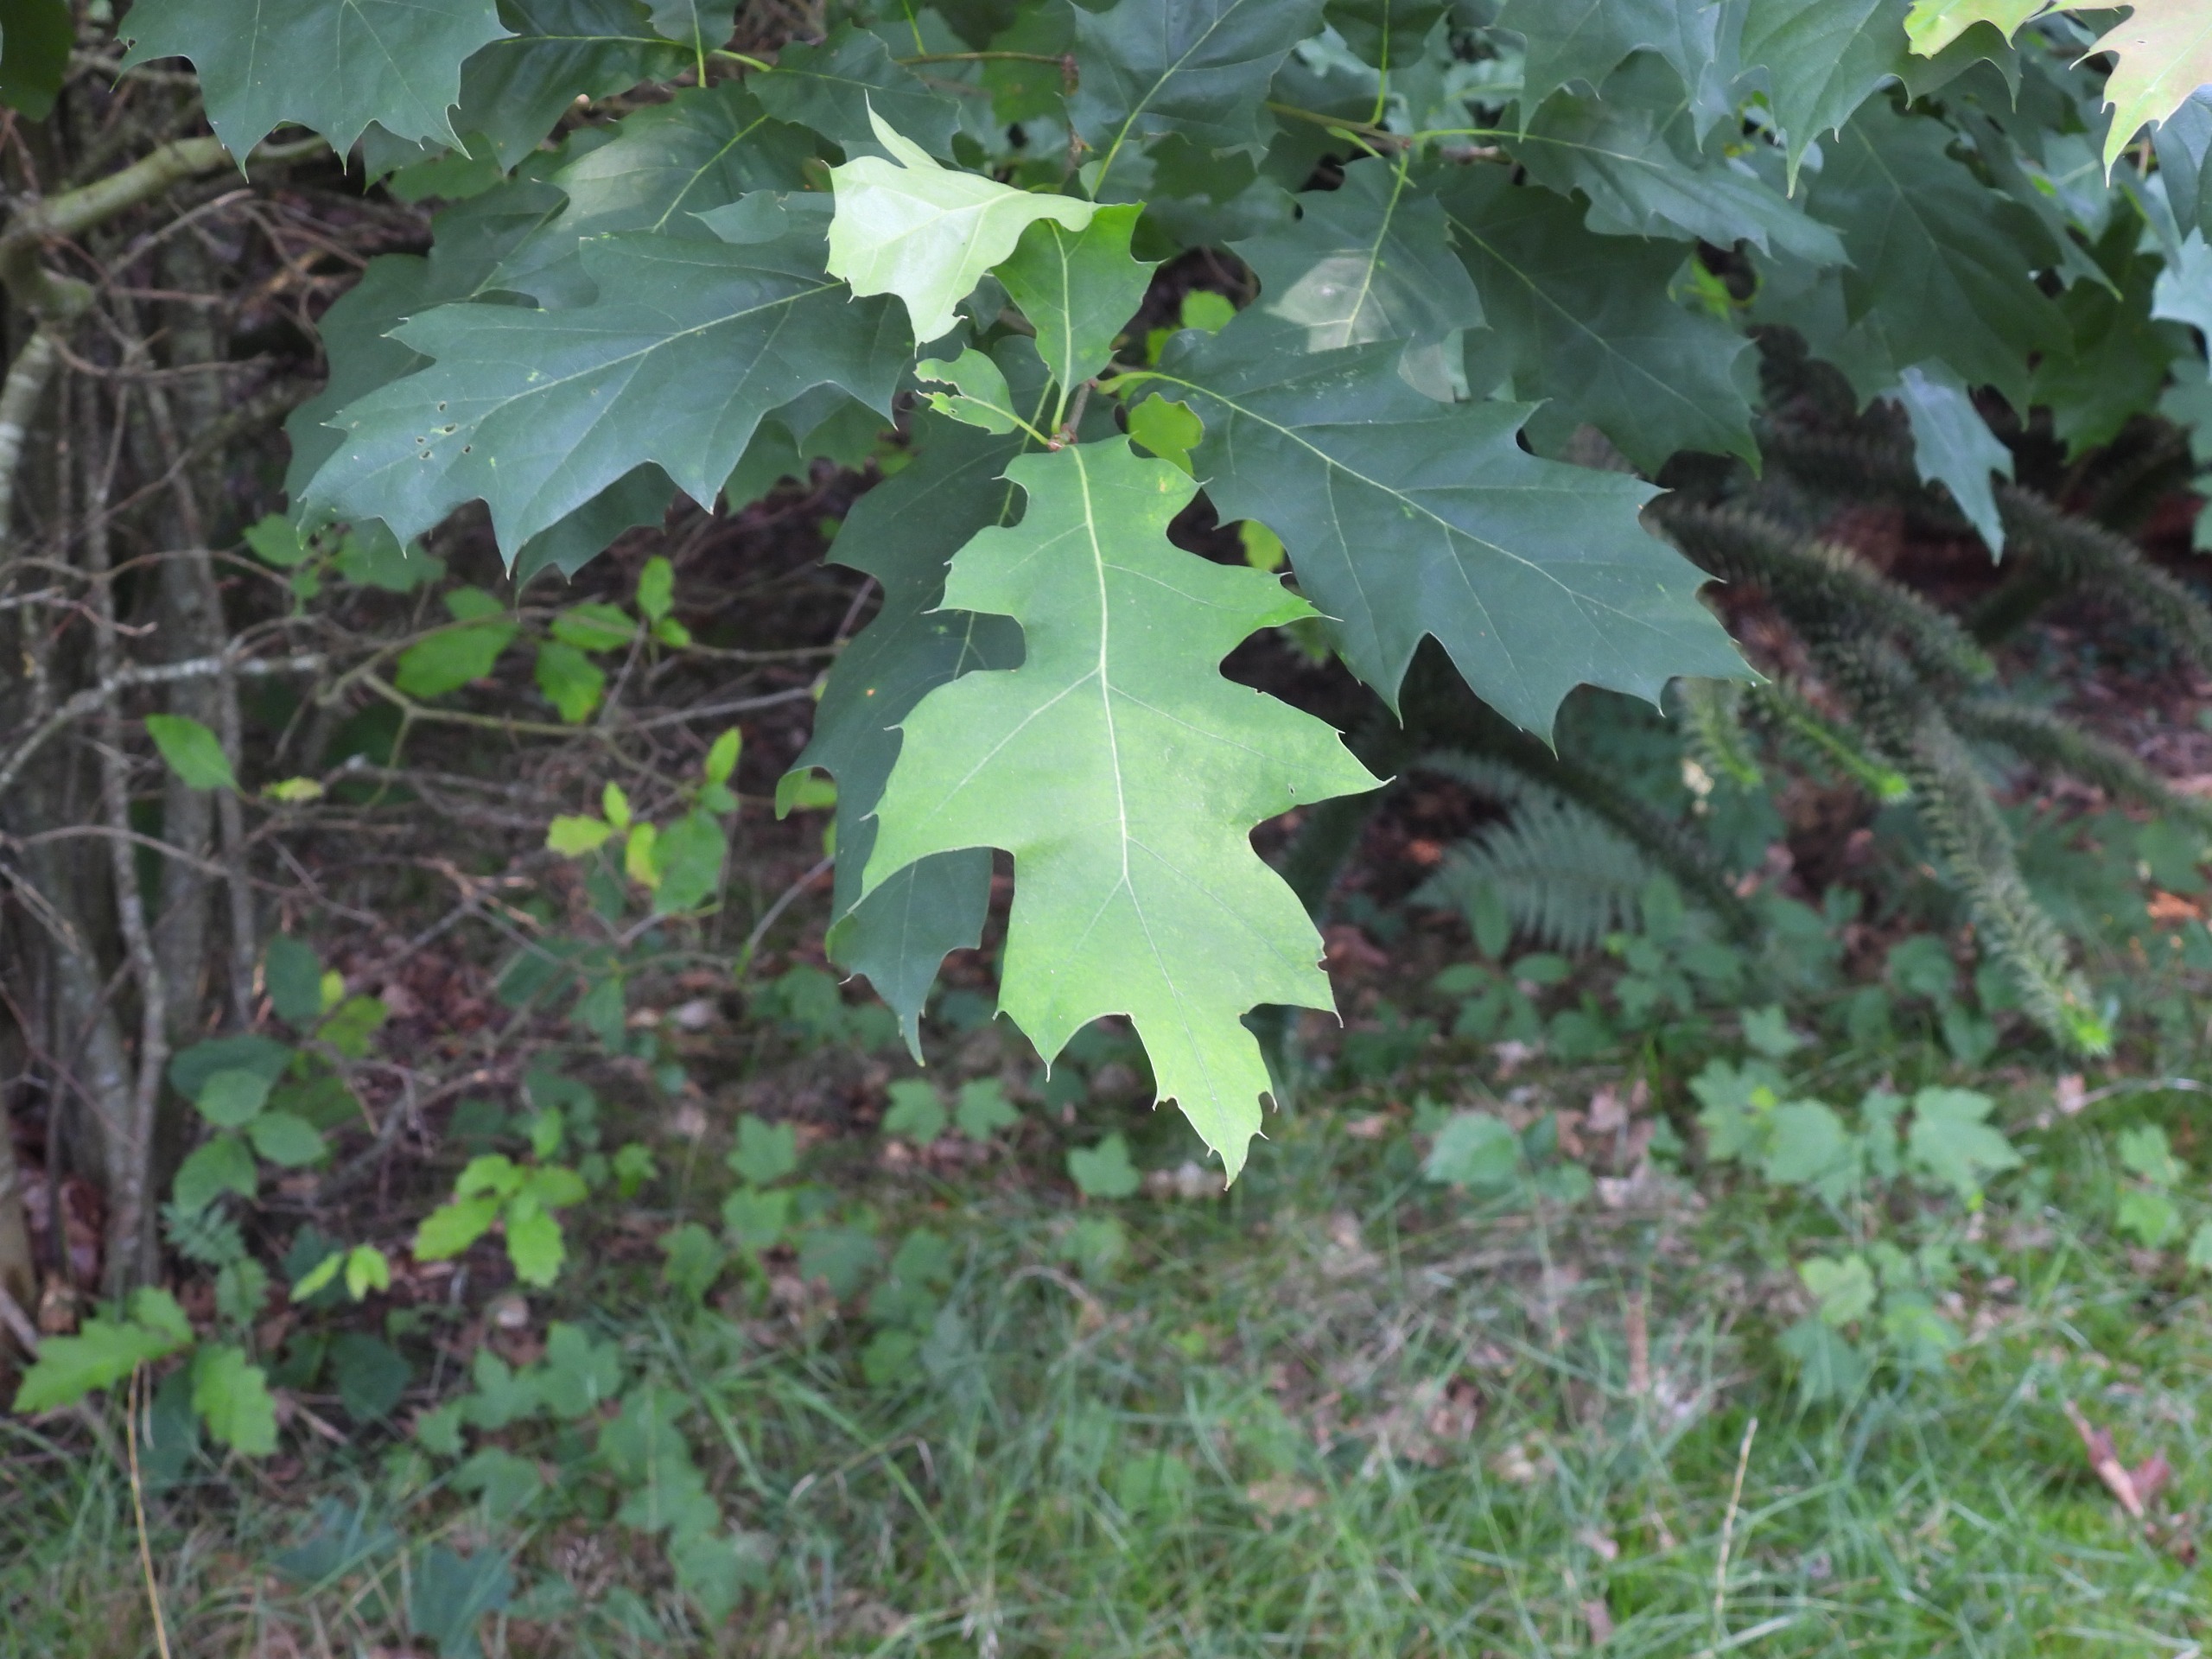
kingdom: Plantae
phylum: Tracheophyta
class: Magnoliopsida
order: Fagales
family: Fagaceae
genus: Quercus
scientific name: Quercus rubra
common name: Rød-eg
